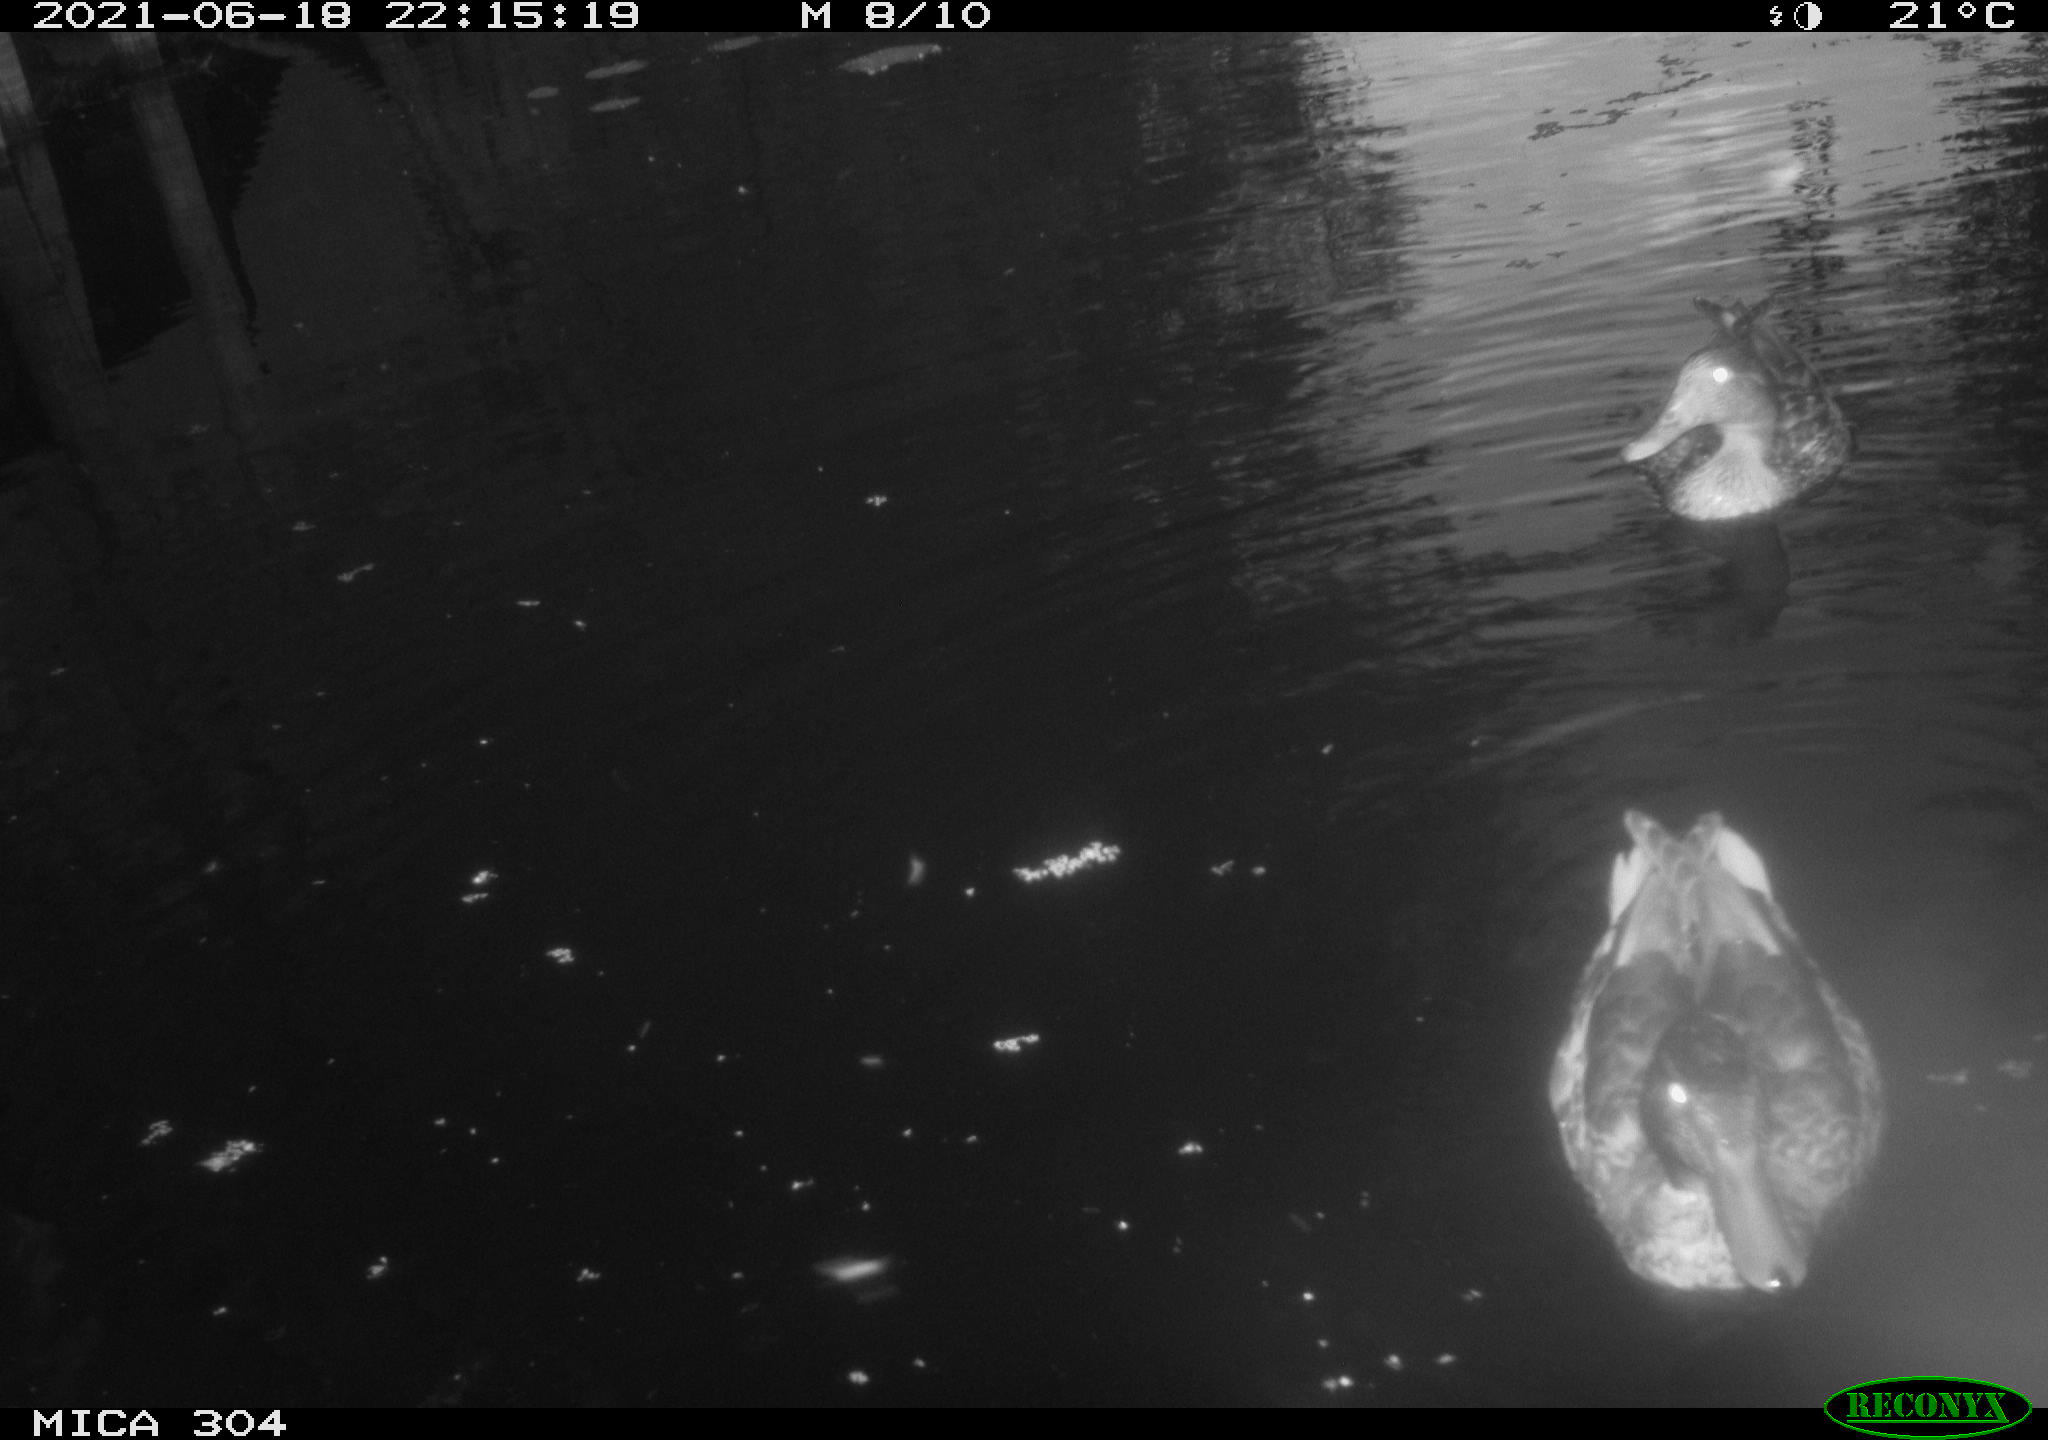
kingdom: Animalia
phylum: Chordata
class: Aves
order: Anseriformes
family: Anatidae
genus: Anas
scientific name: Anas platyrhynchos
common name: Mallard
